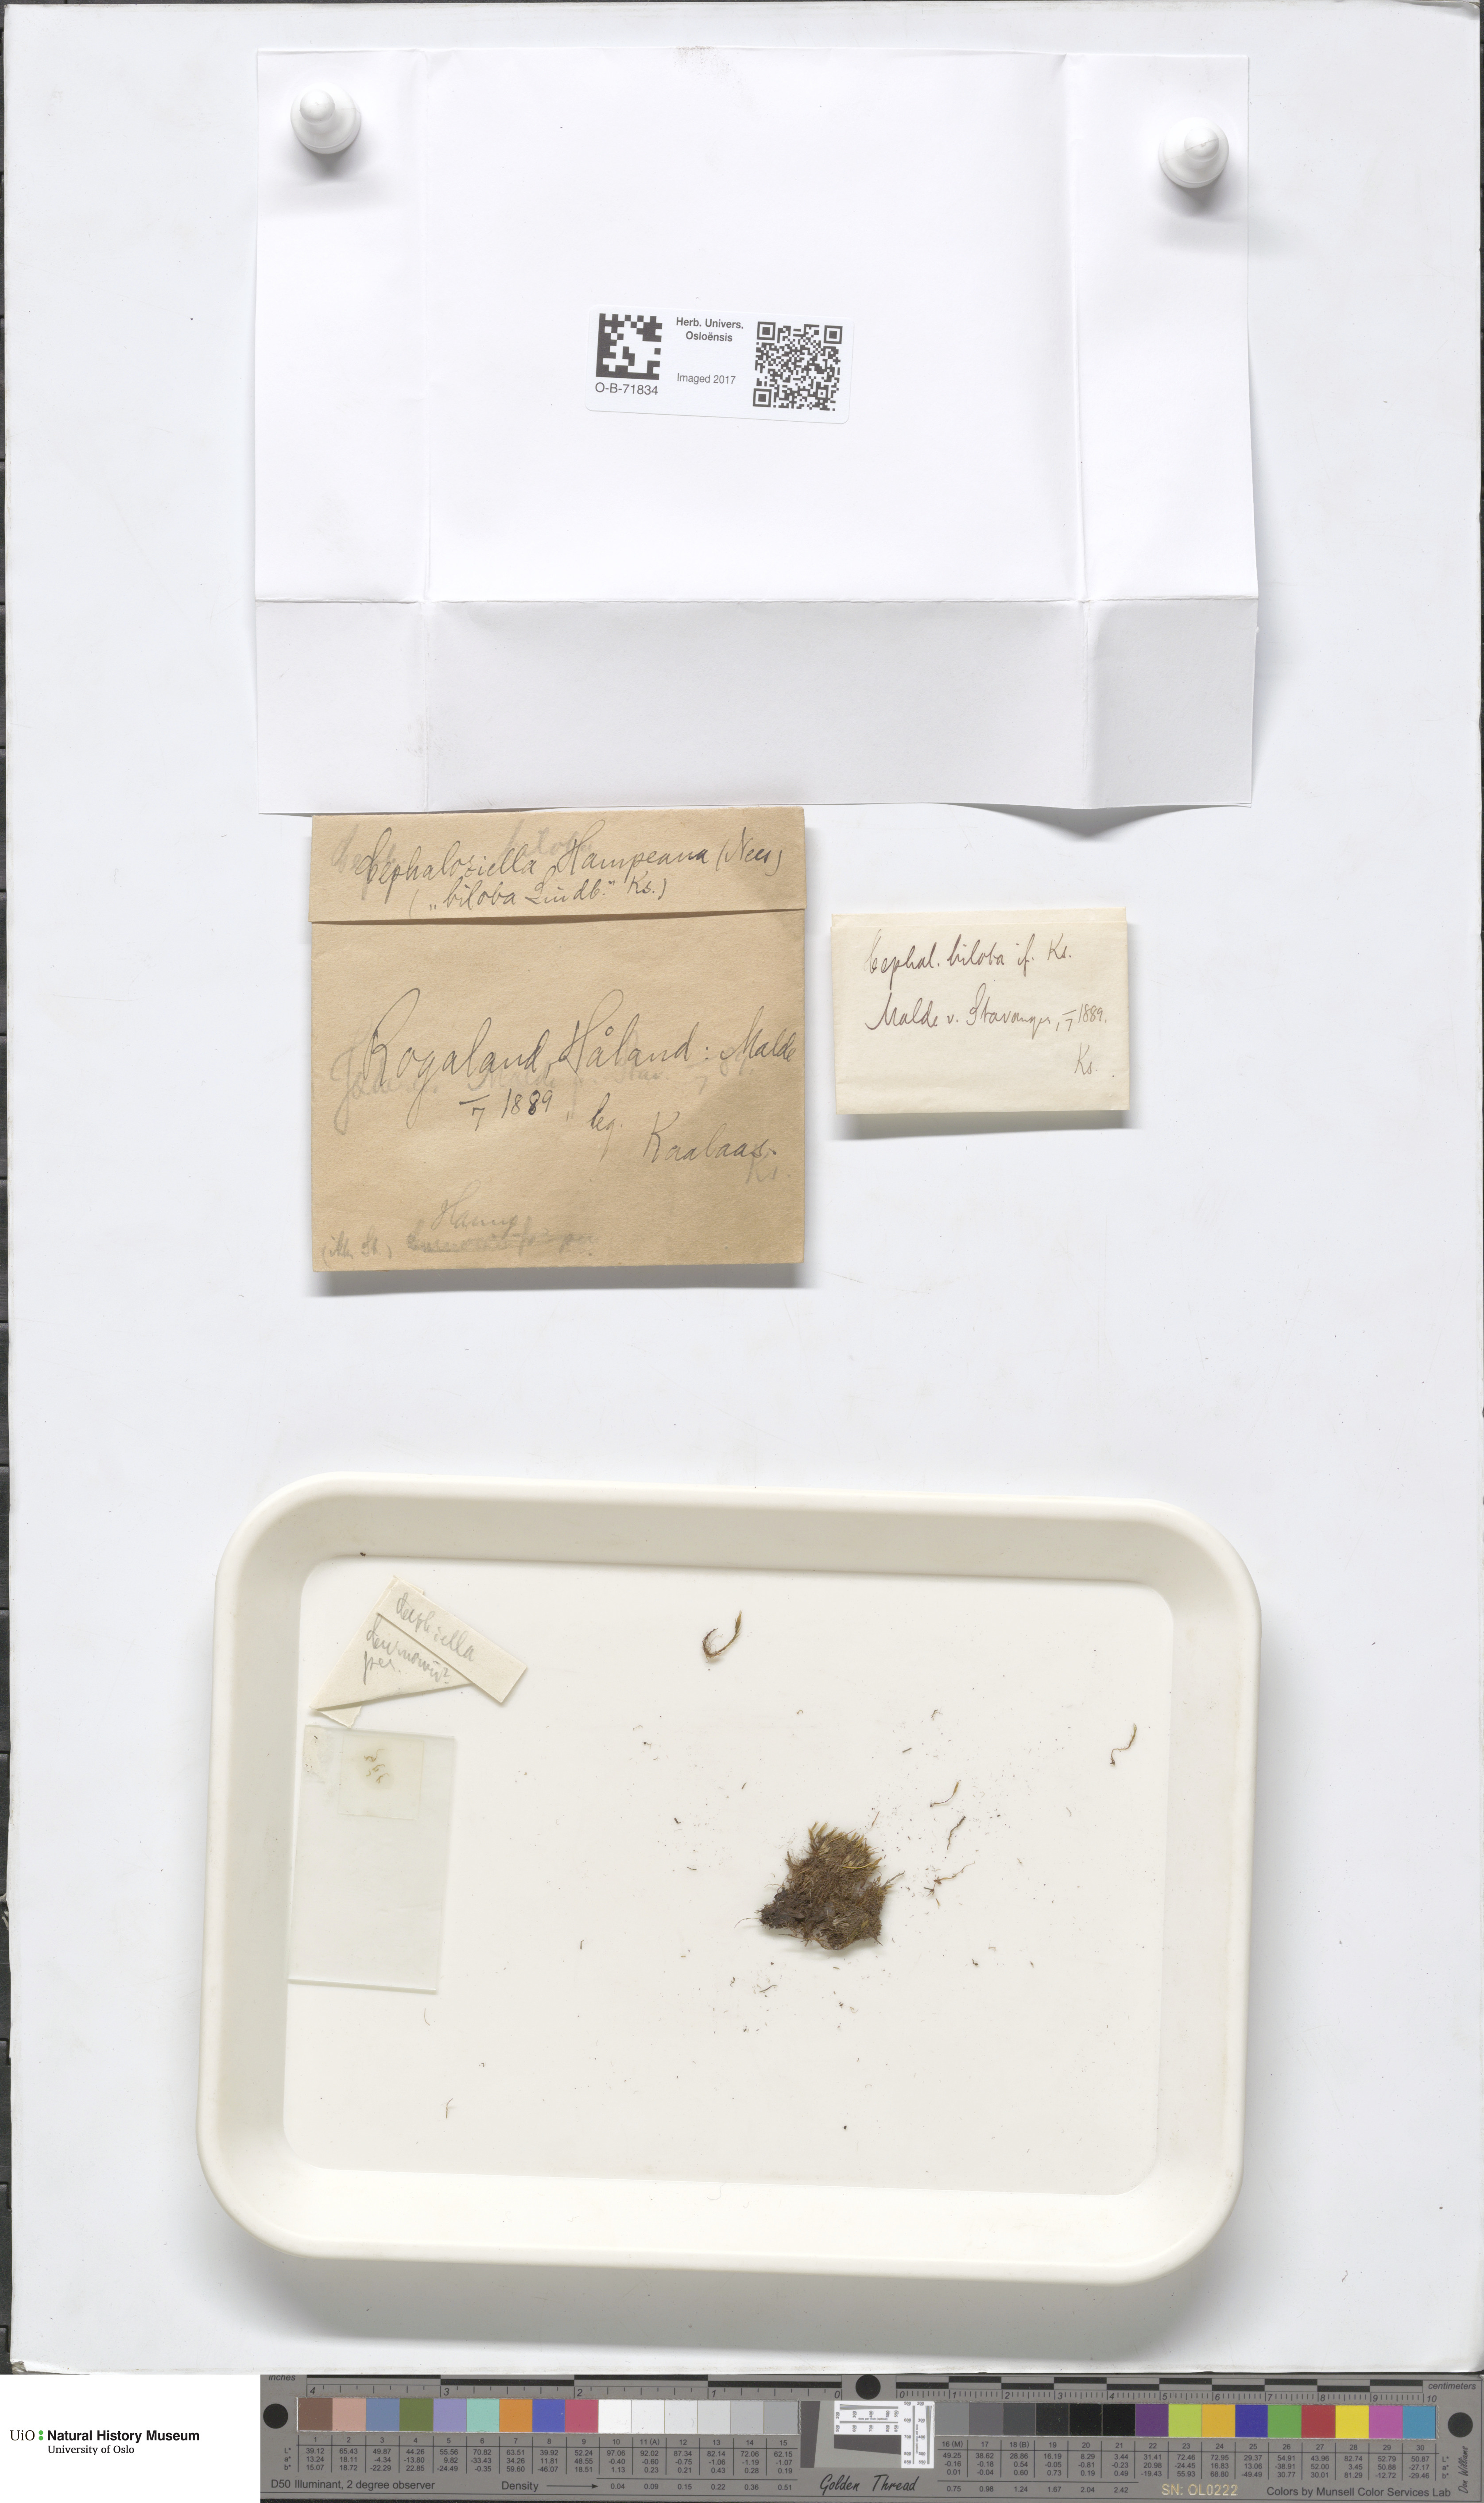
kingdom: Plantae
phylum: Marchantiophyta
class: Jungermanniopsida
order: Jungermanniales
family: Cephaloziellaceae
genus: Cephaloziella
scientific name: Cephaloziella hampeana
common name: Hampe s threadwort
